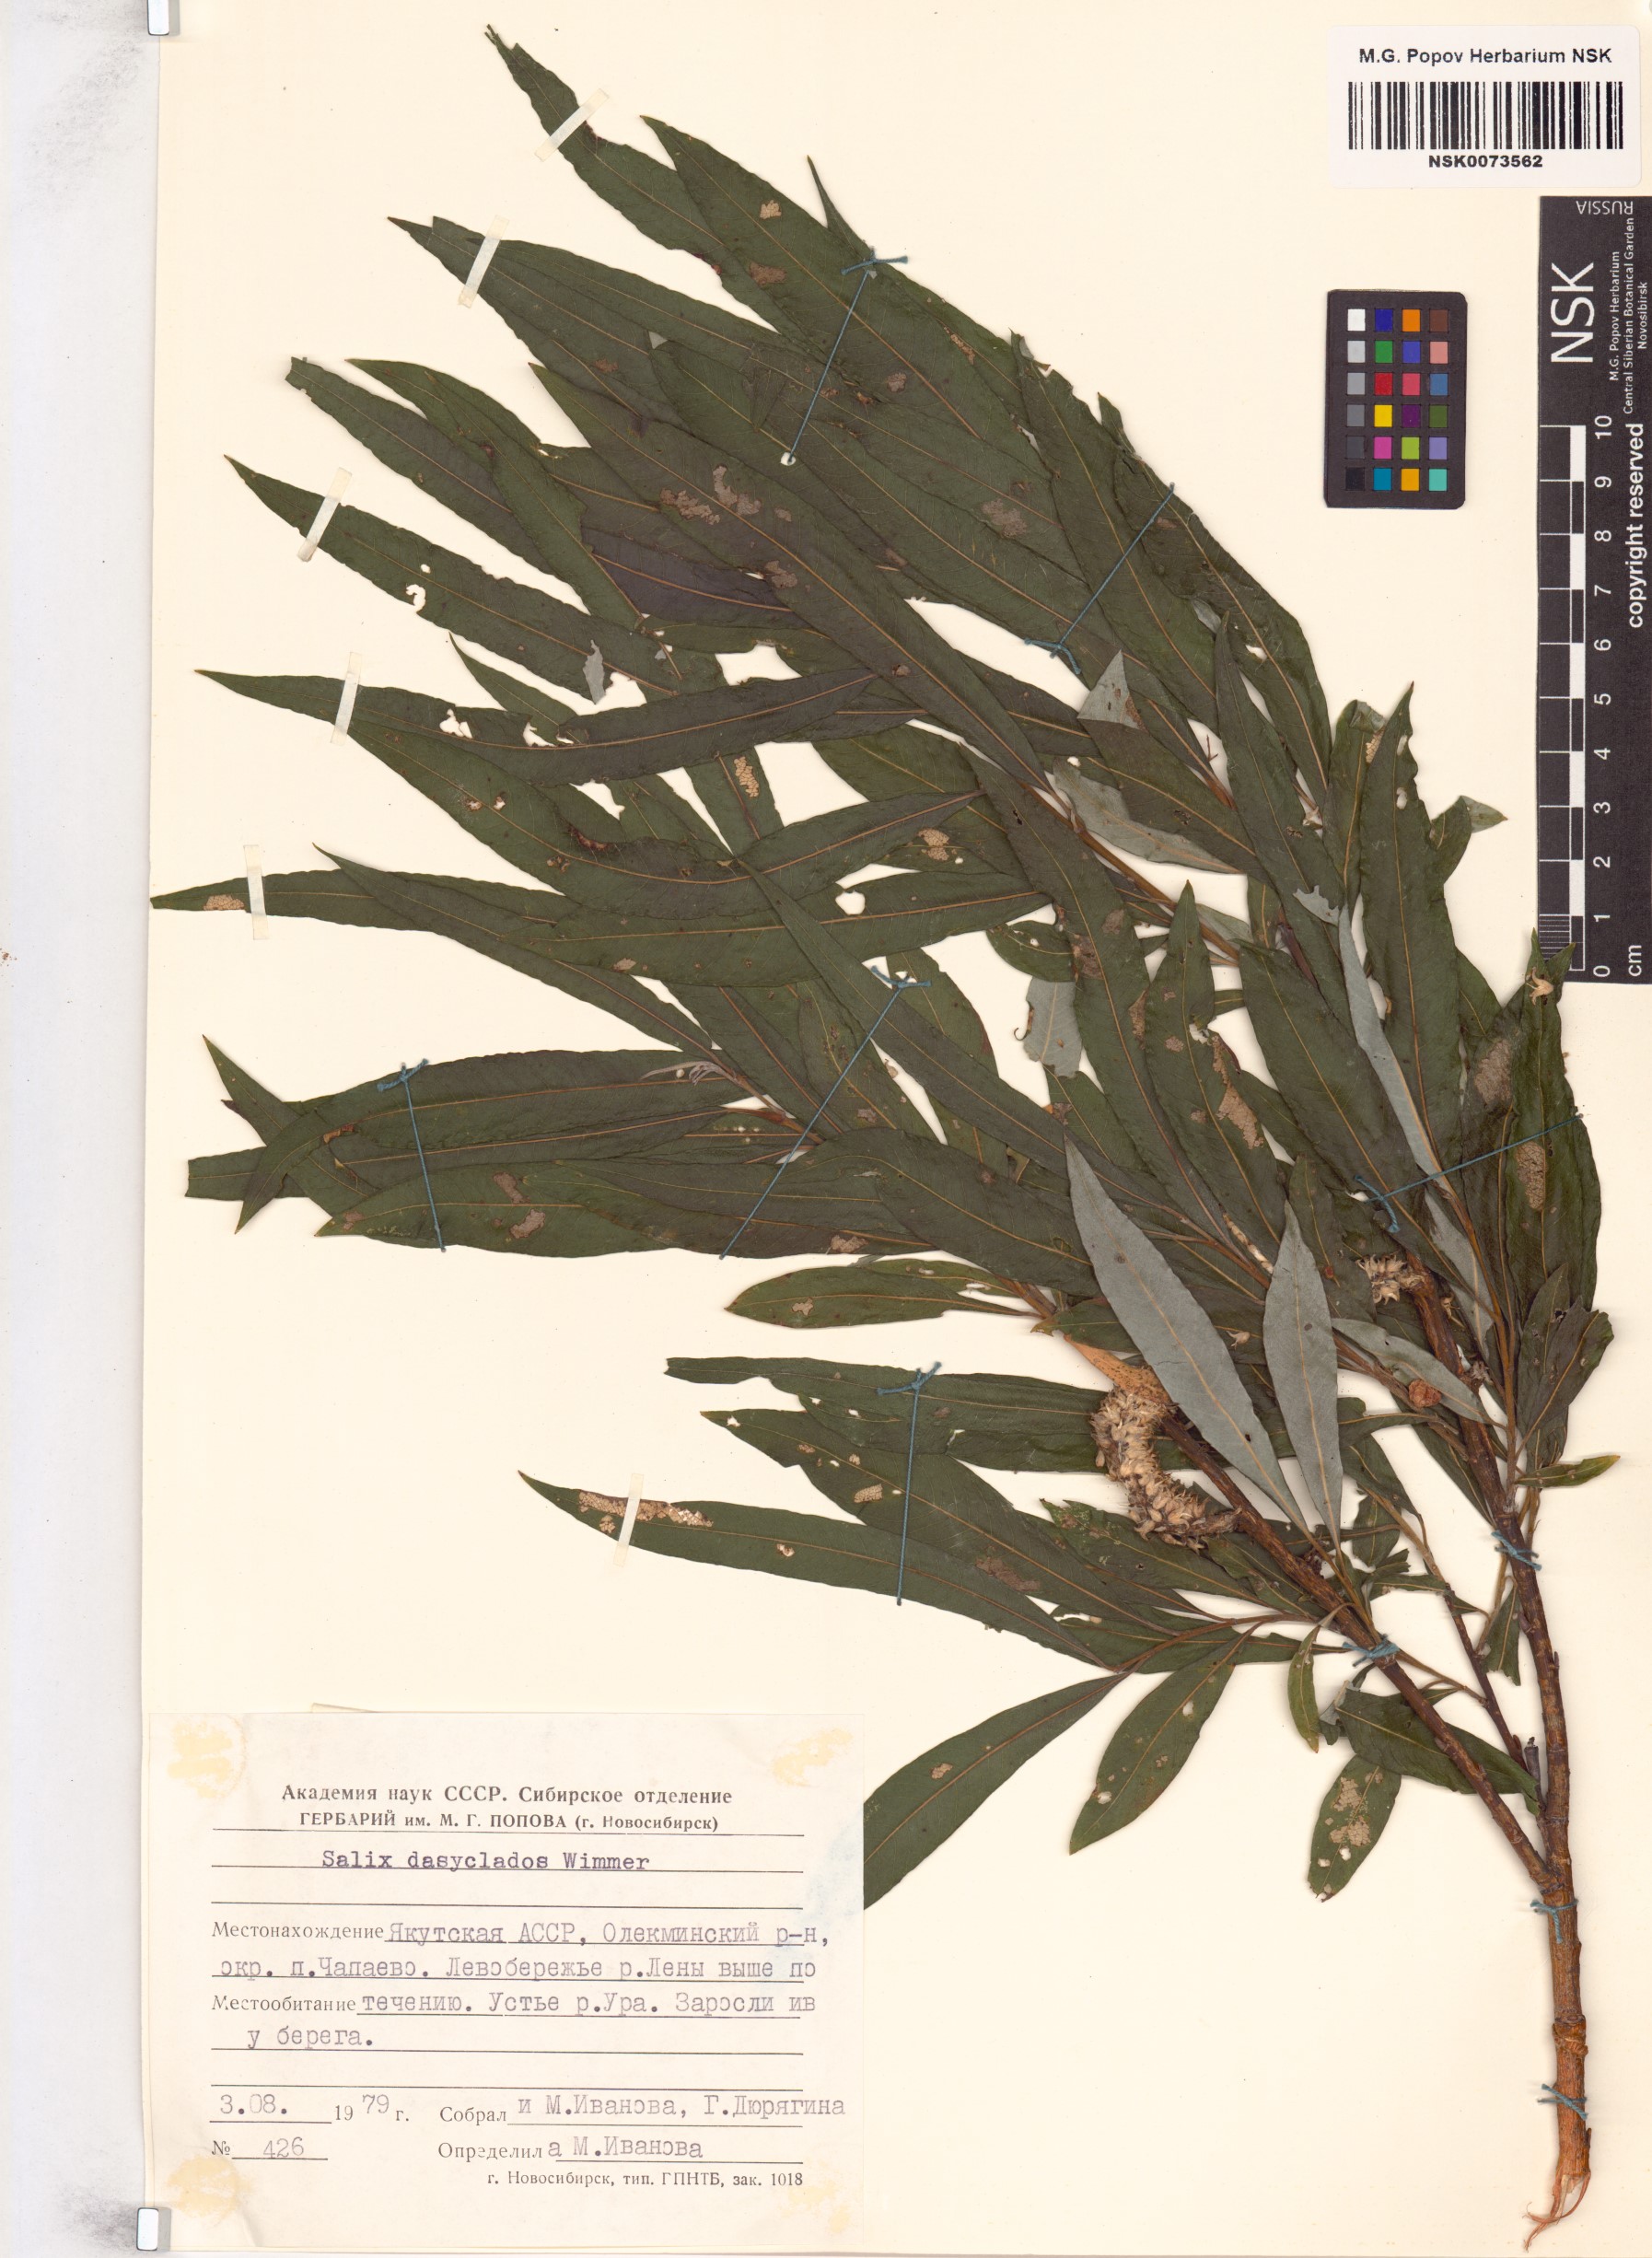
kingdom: Plantae
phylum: Tracheophyta
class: Magnoliopsida
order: Malpighiales
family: Salicaceae
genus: Salix
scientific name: Salix gmelinii
